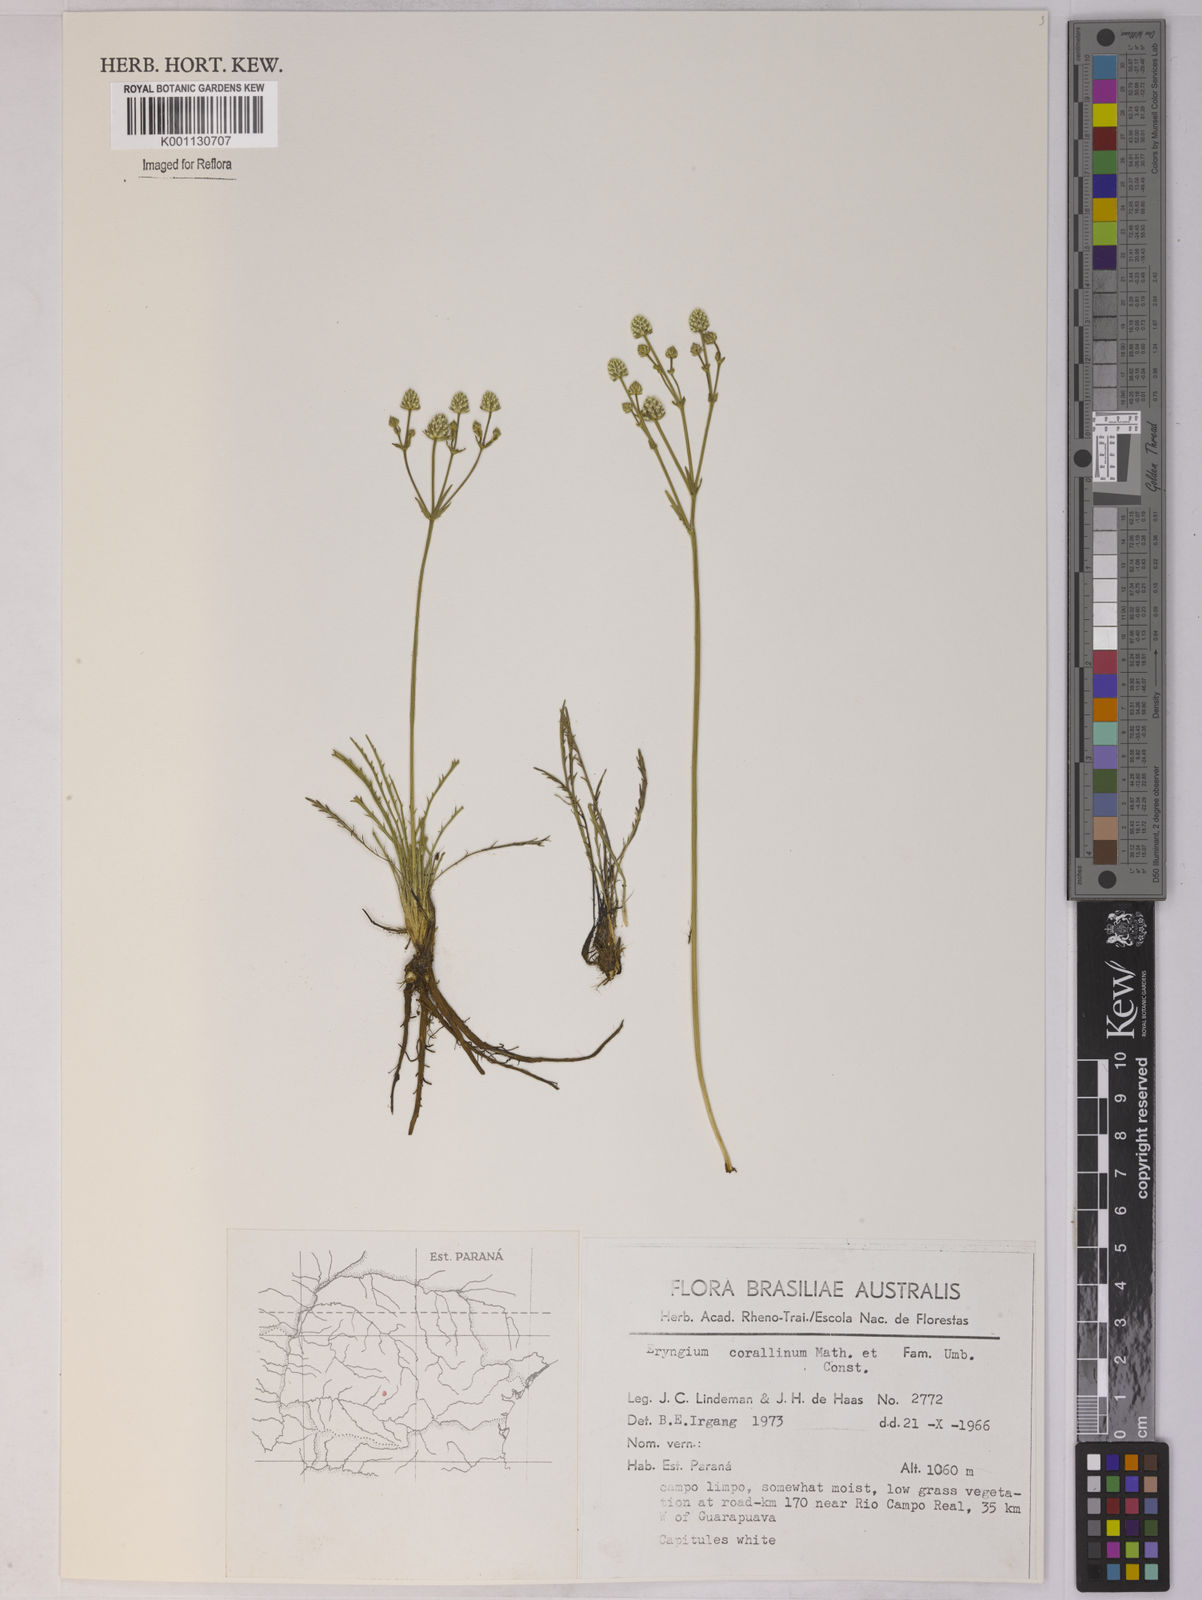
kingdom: Plantae
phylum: Tracheophyta
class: Magnoliopsida
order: Apiales
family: Apiaceae
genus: Eryngium
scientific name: Eryngium corallinum
